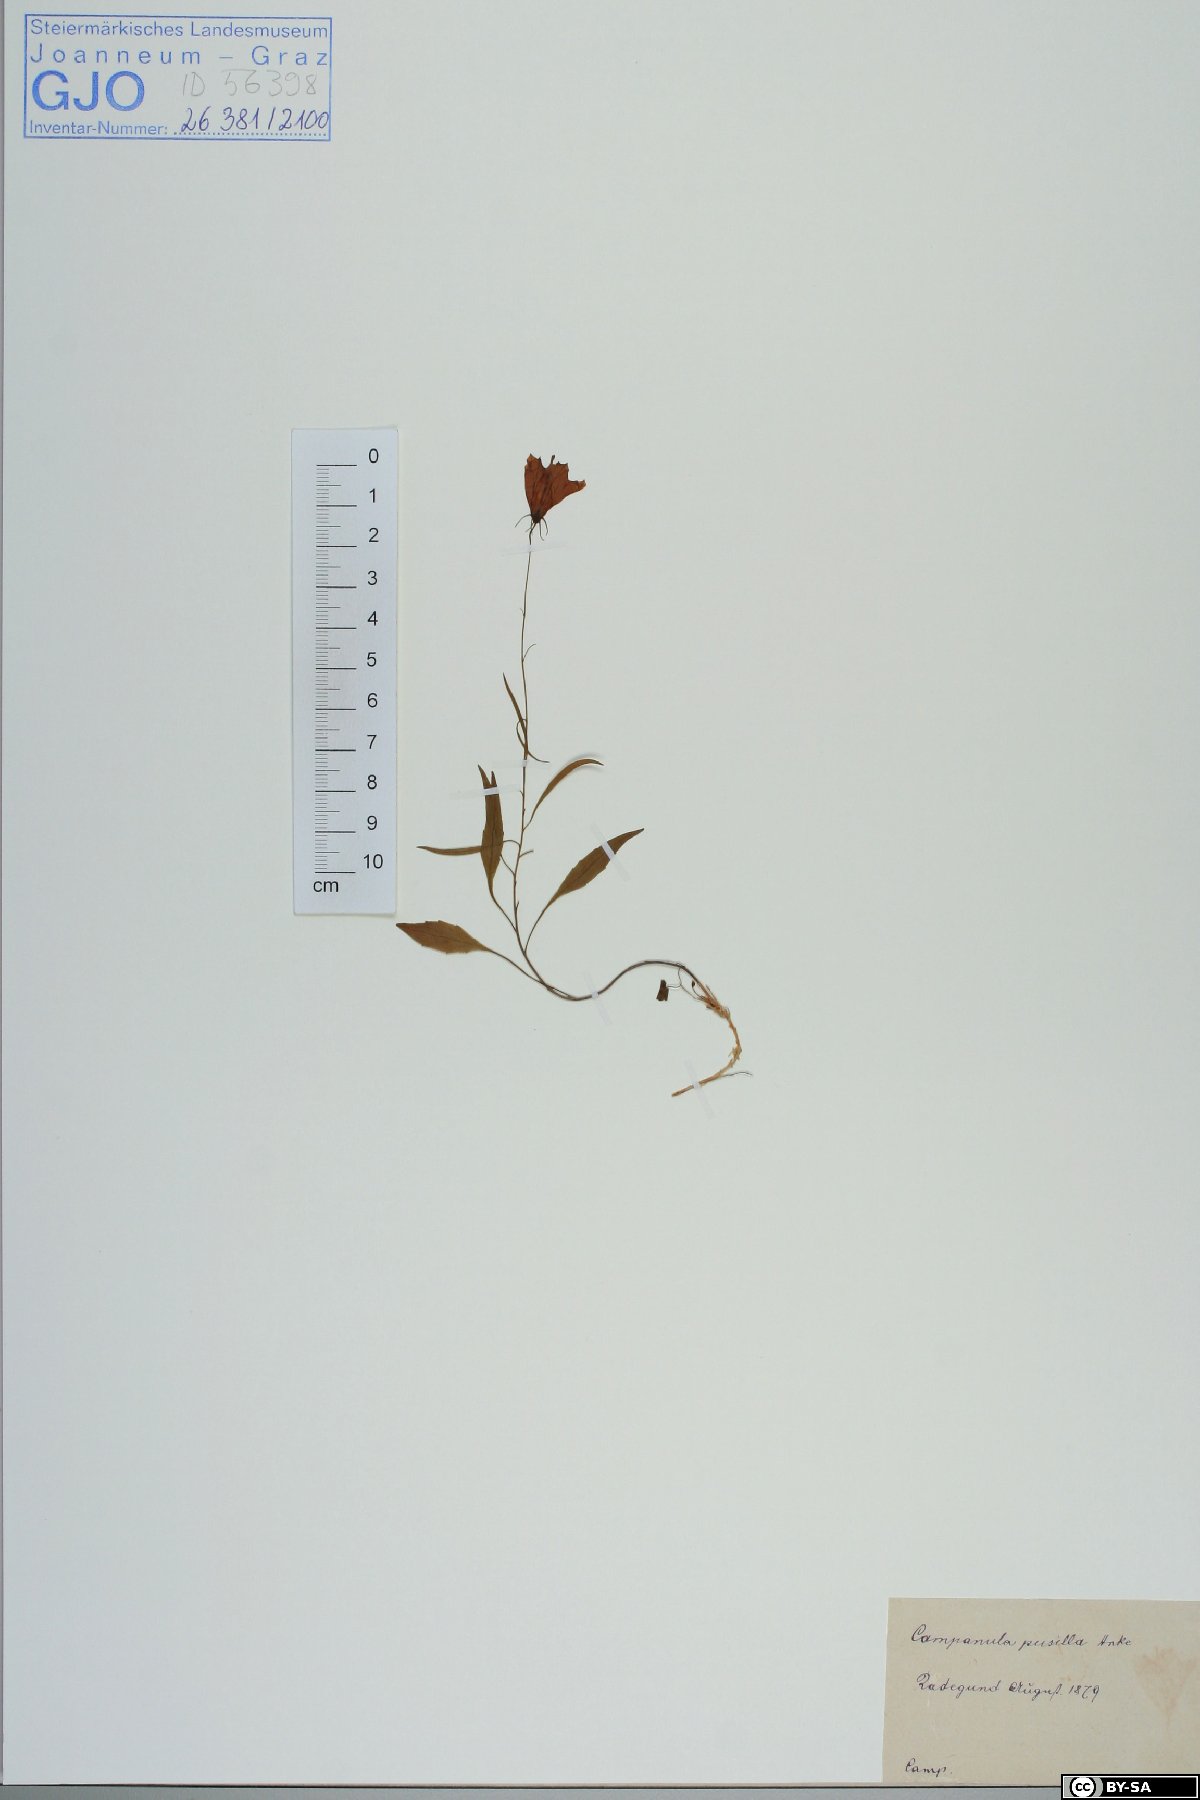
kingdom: Plantae
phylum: Tracheophyta
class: Magnoliopsida
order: Asterales
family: Campanulaceae
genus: Campanula
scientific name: Campanula cochleariifolia
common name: Fairies'-thimbles
